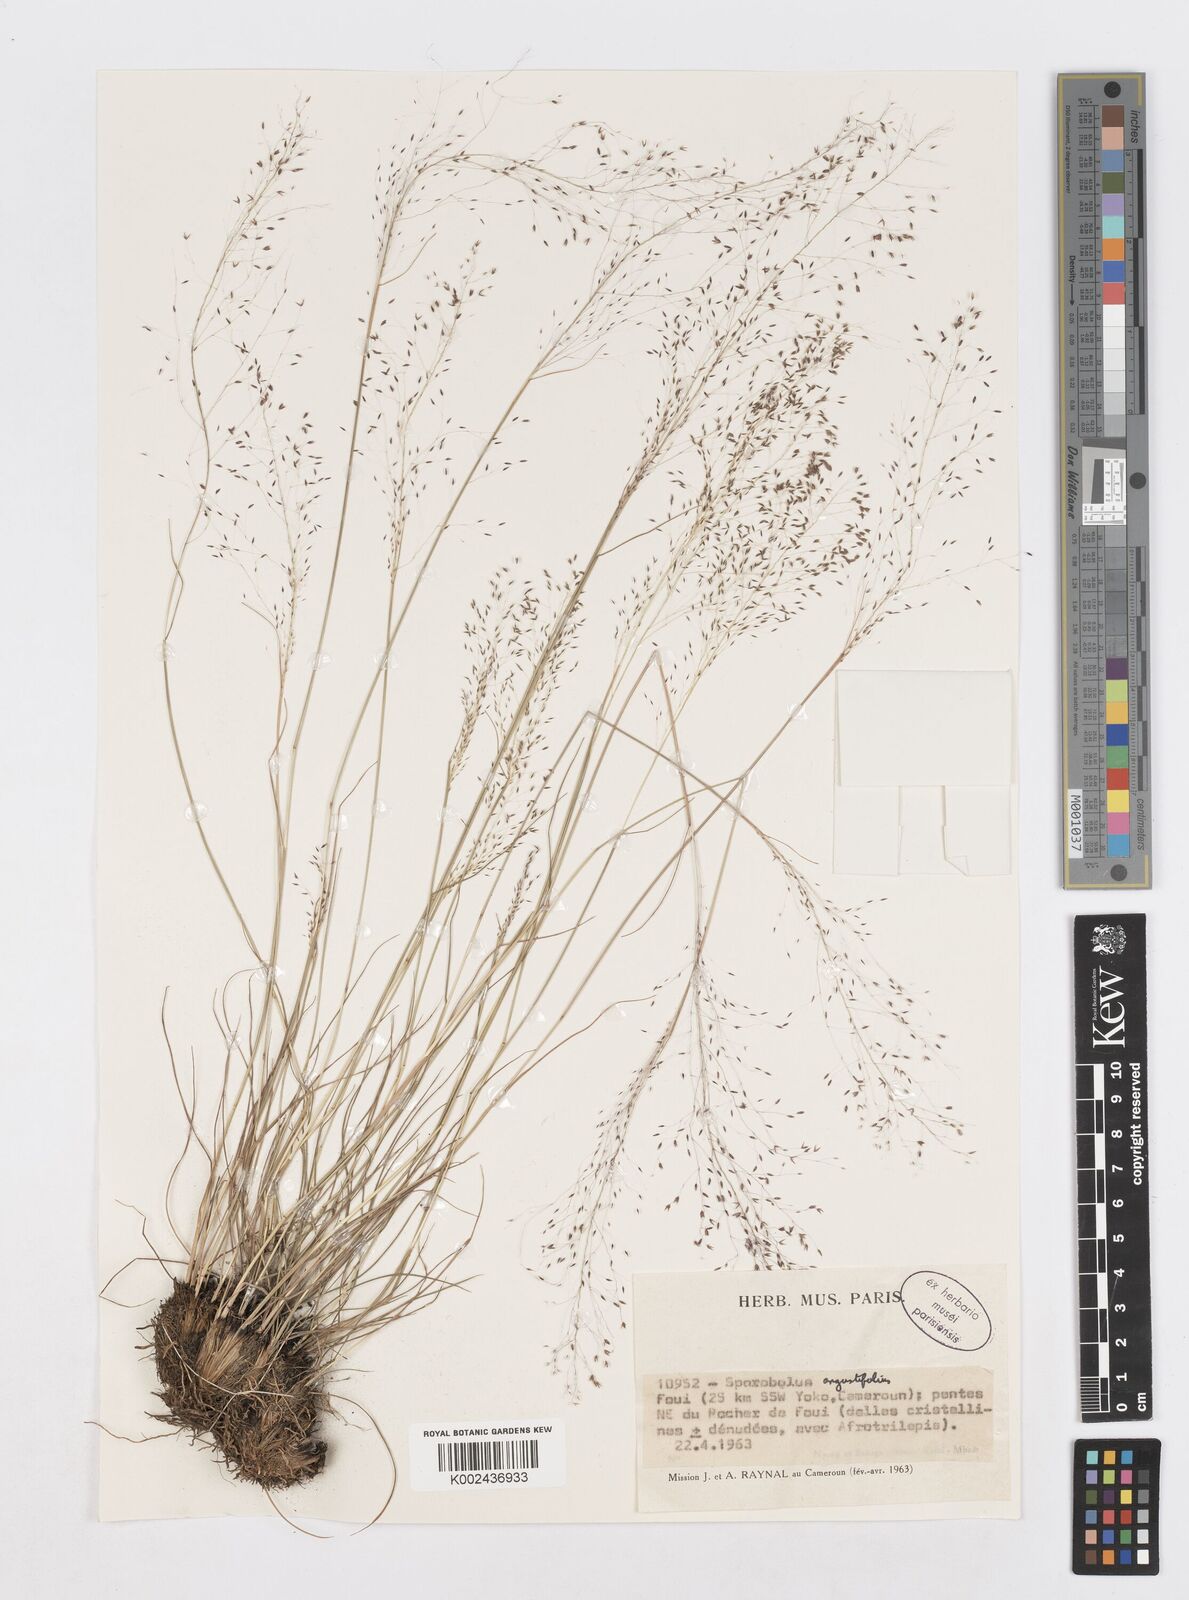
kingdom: Plantae
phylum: Tracheophyta
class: Liliopsida
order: Poales
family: Poaceae
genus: Sporobolus
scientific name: Sporobolus myrianthus
